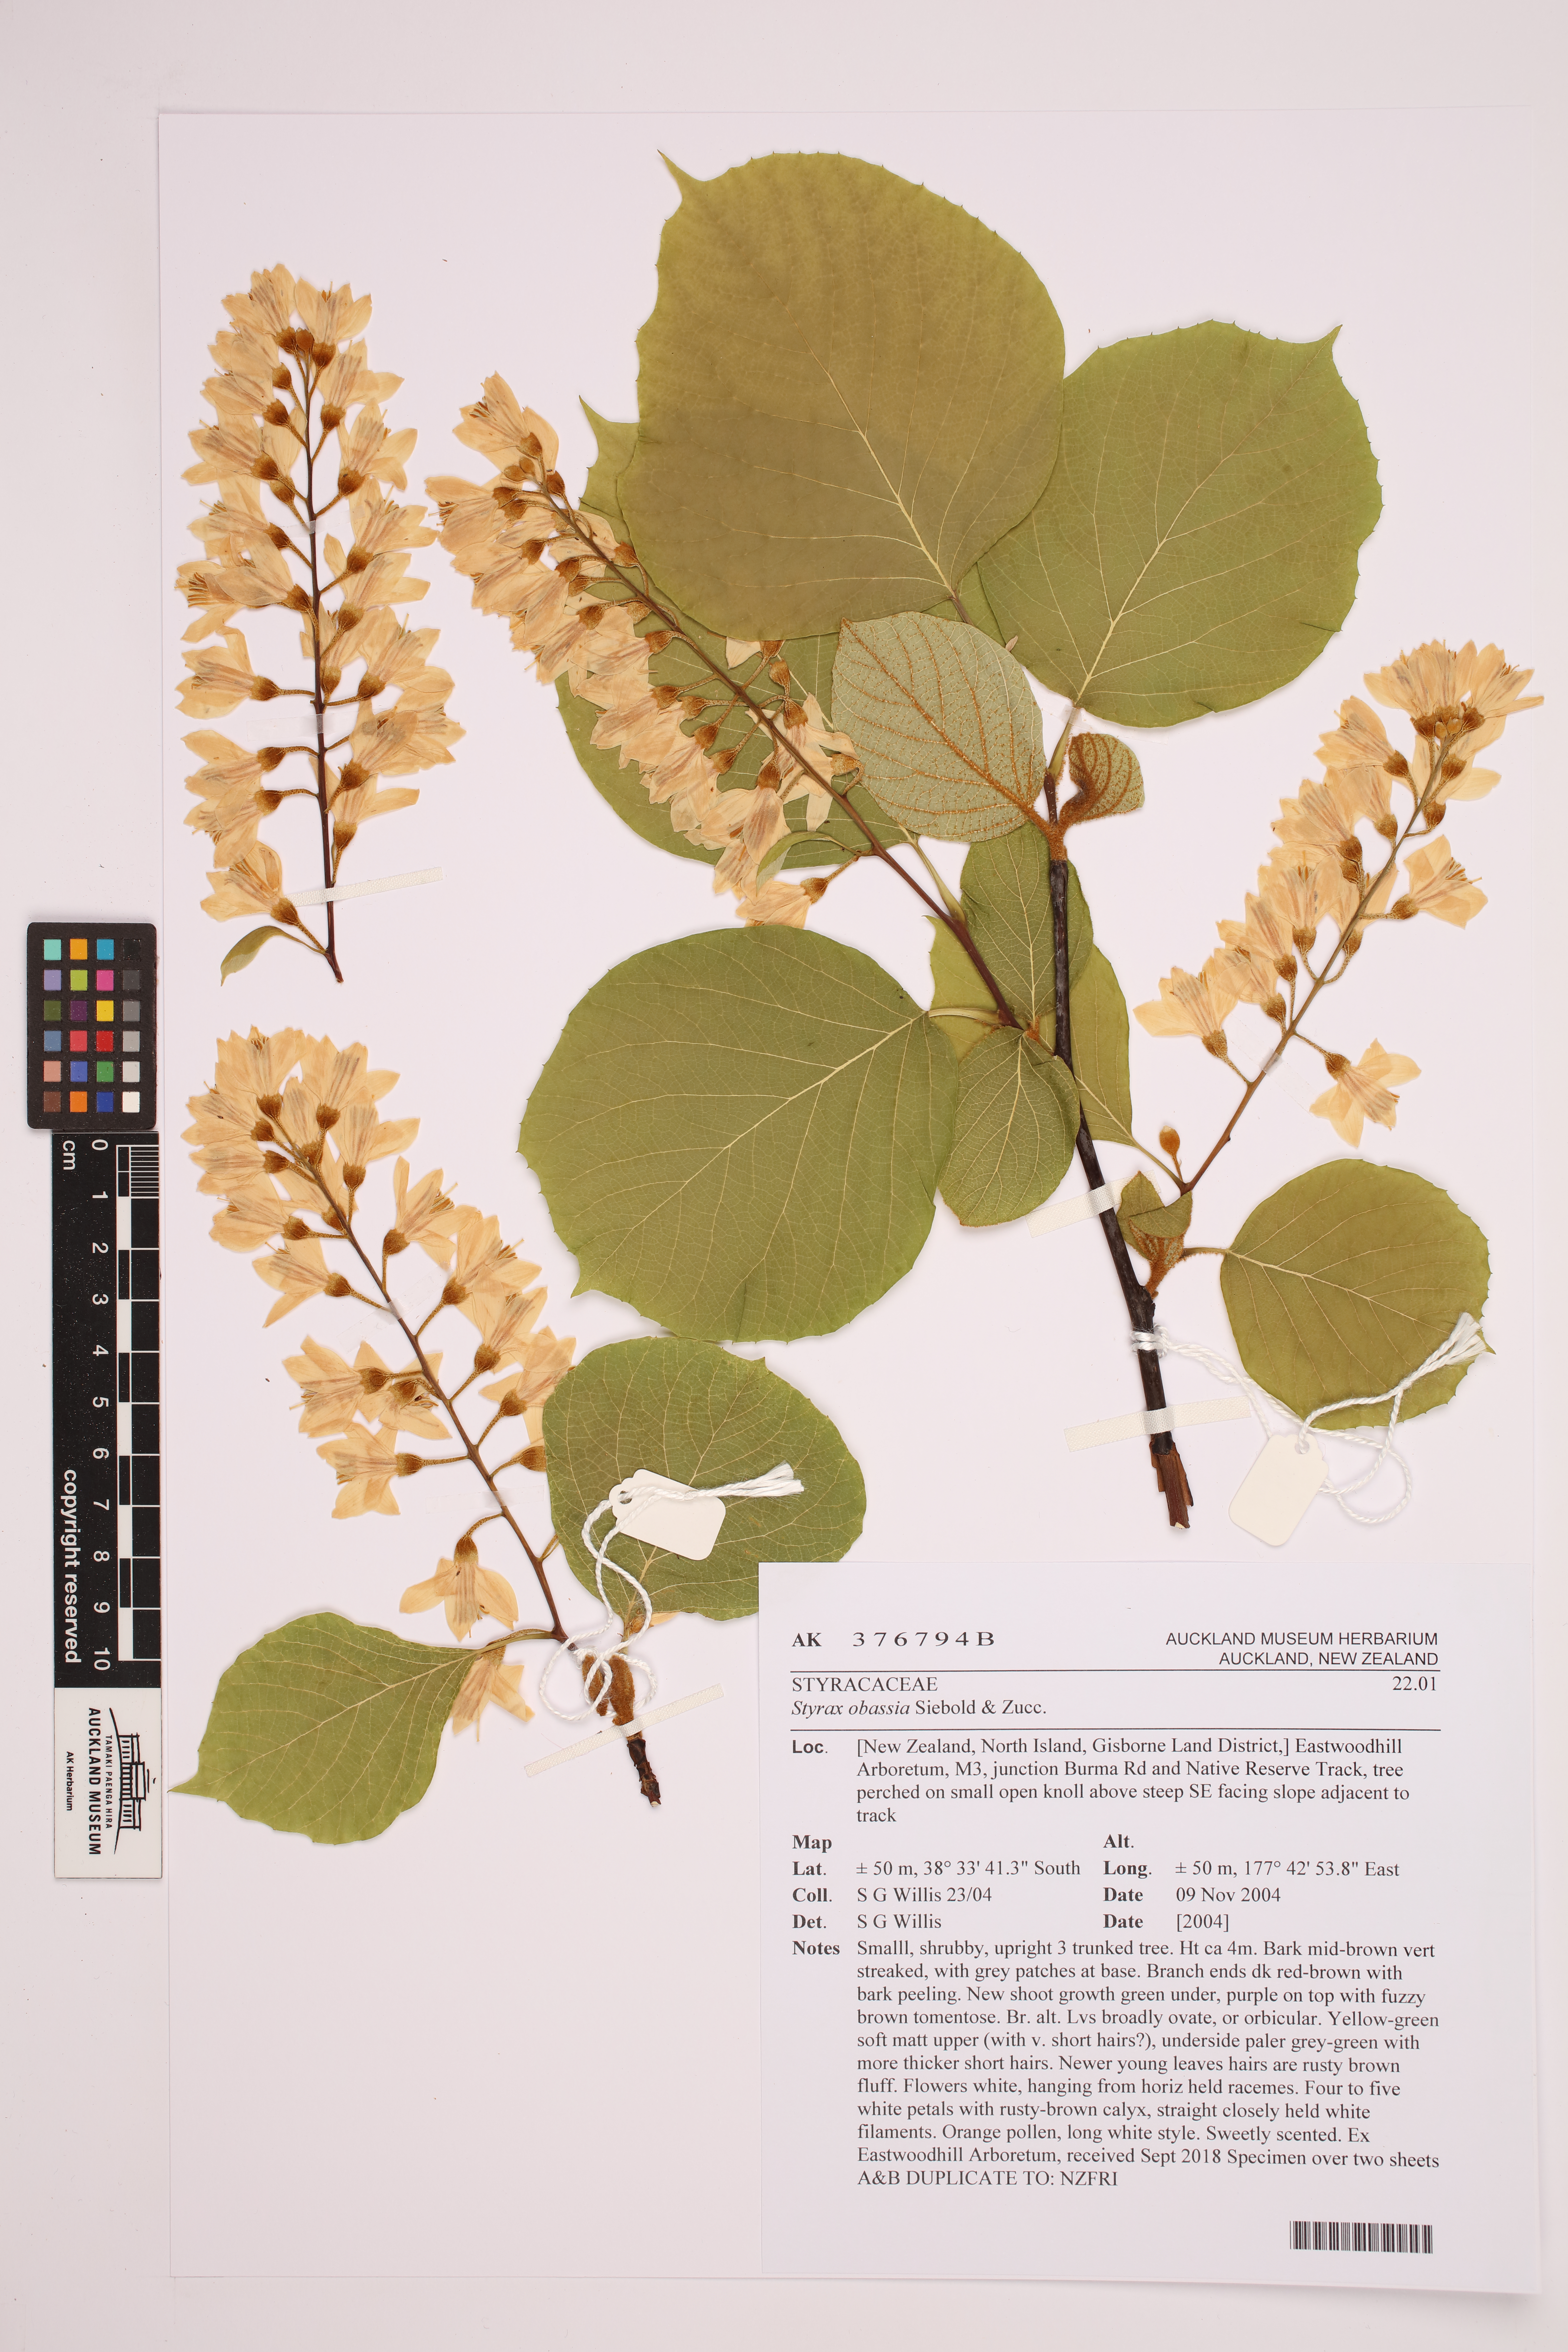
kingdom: Plantae
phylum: Tracheophyta
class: Magnoliopsida
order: Ericales
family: Styracaceae
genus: Styrax
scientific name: Styrax obassia
